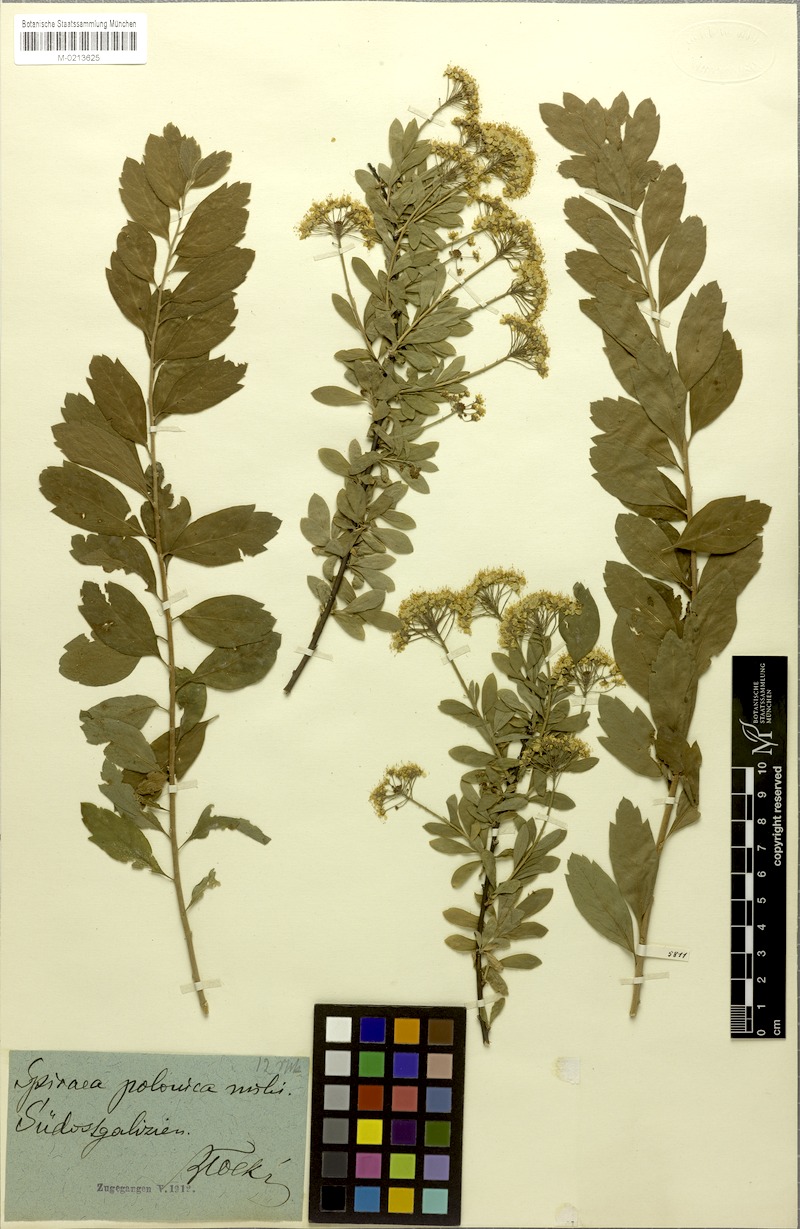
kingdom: Plantae
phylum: Tracheophyta
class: Magnoliopsida
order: Rosales
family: Rosaceae
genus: Spiraea
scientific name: Spiraea media
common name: Russian spiraea
